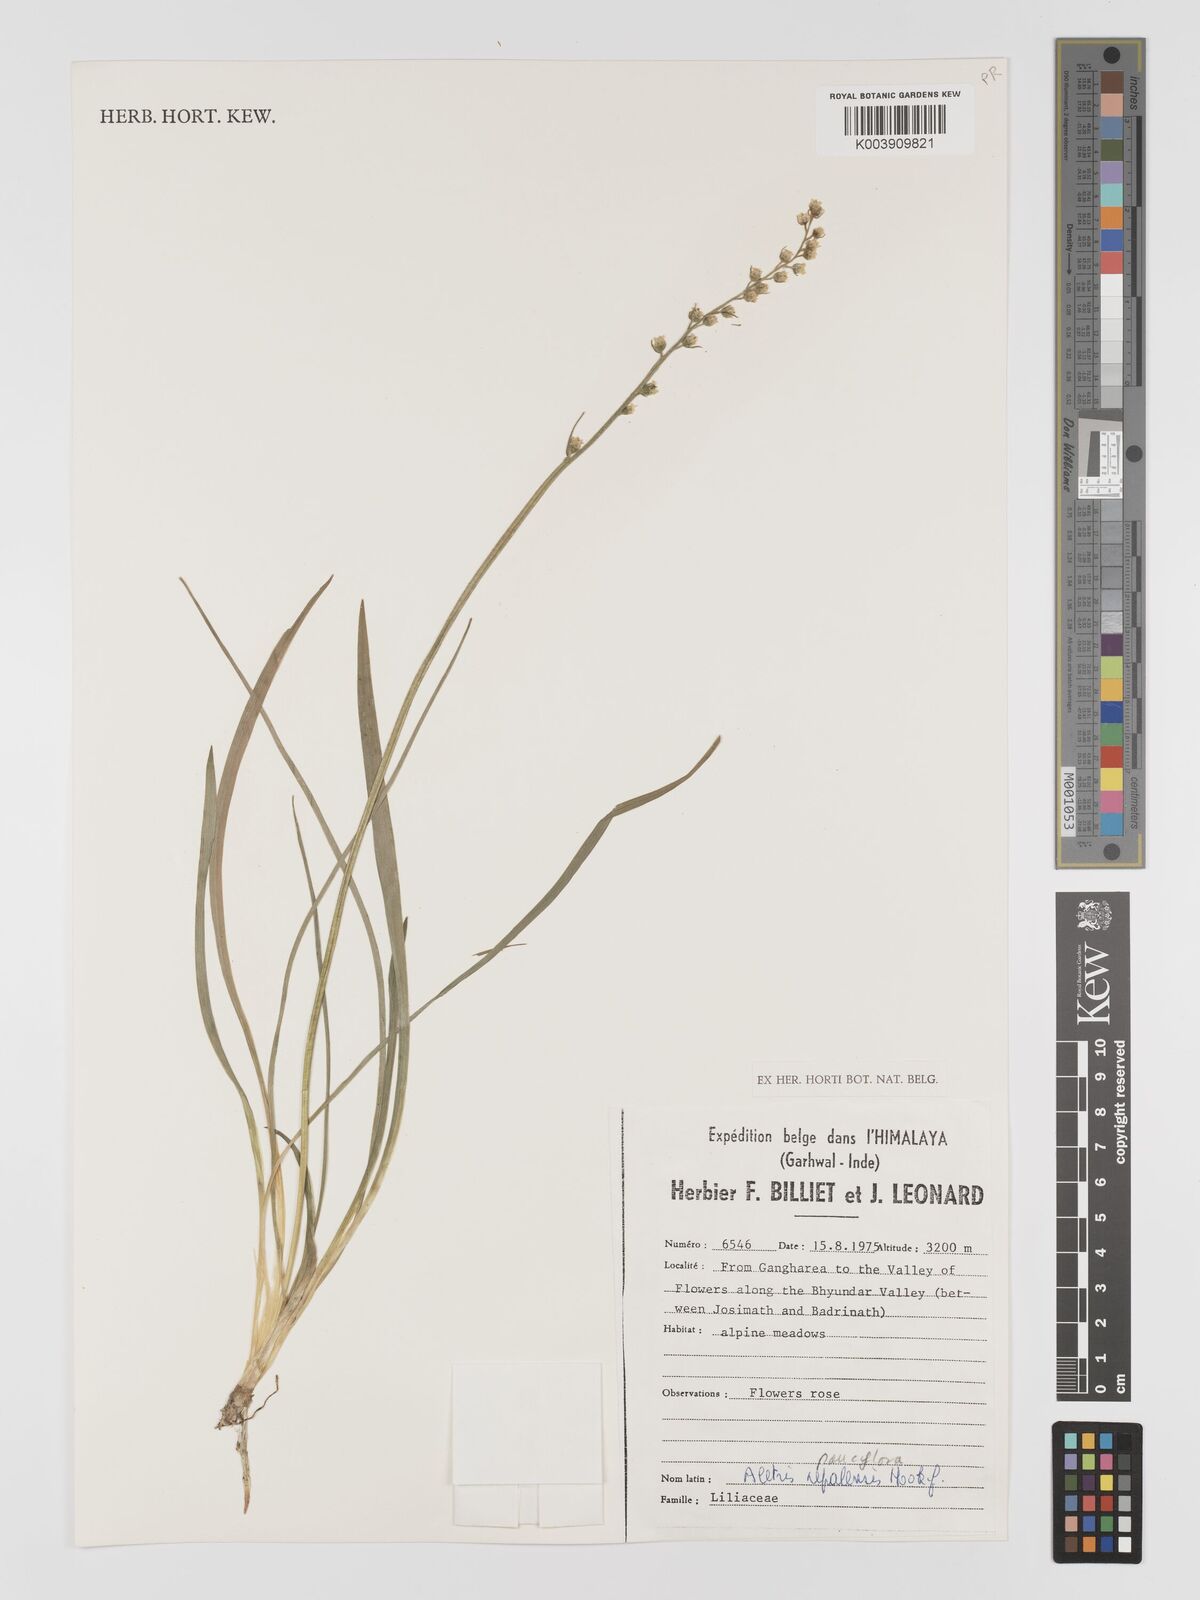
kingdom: Plantae
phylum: Tracheophyta
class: Liliopsida
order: Dioscoreales
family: Nartheciaceae
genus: Aletris
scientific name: Aletris pauciflora
